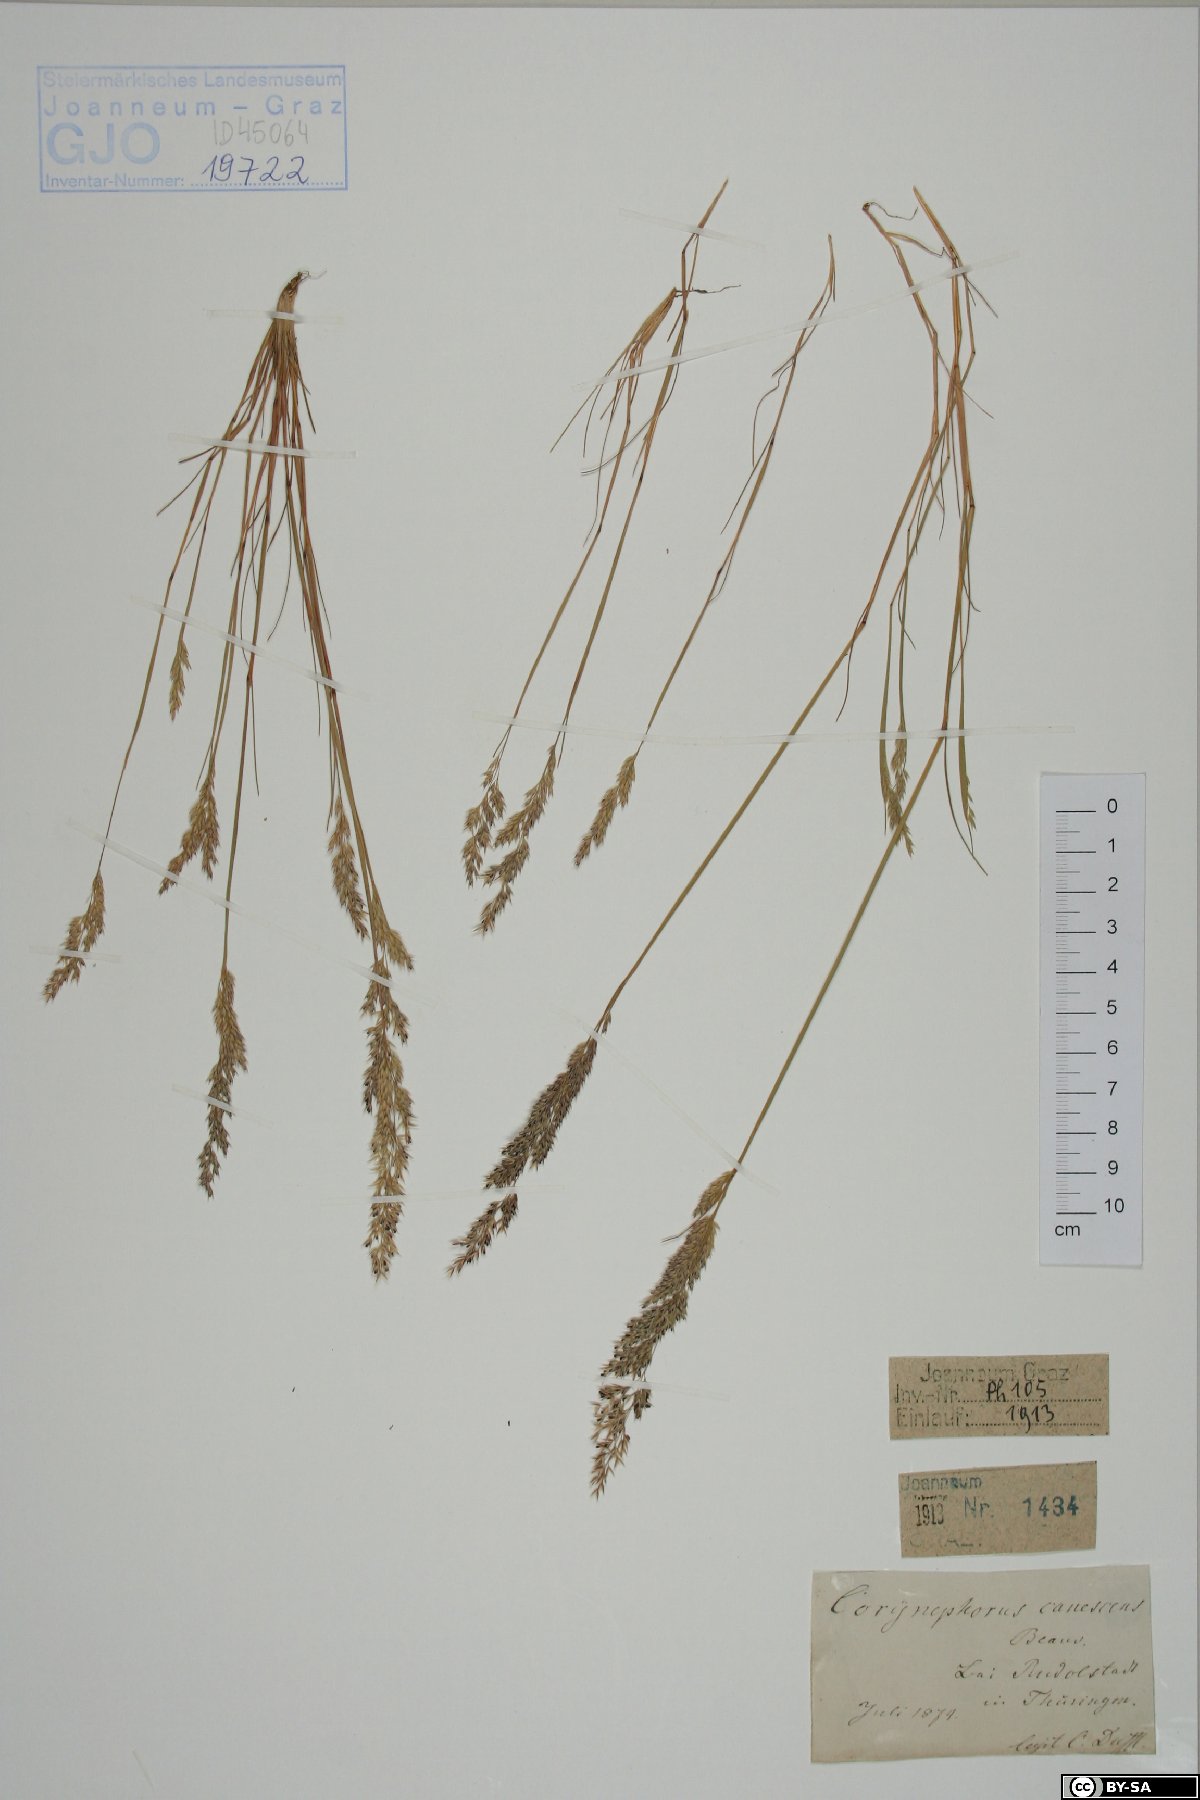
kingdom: Plantae
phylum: Tracheophyta
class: Liliopsida
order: Poales
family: Poaceae
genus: Corynephorus
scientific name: Corynephorus canescens
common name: Grey hair-grass
